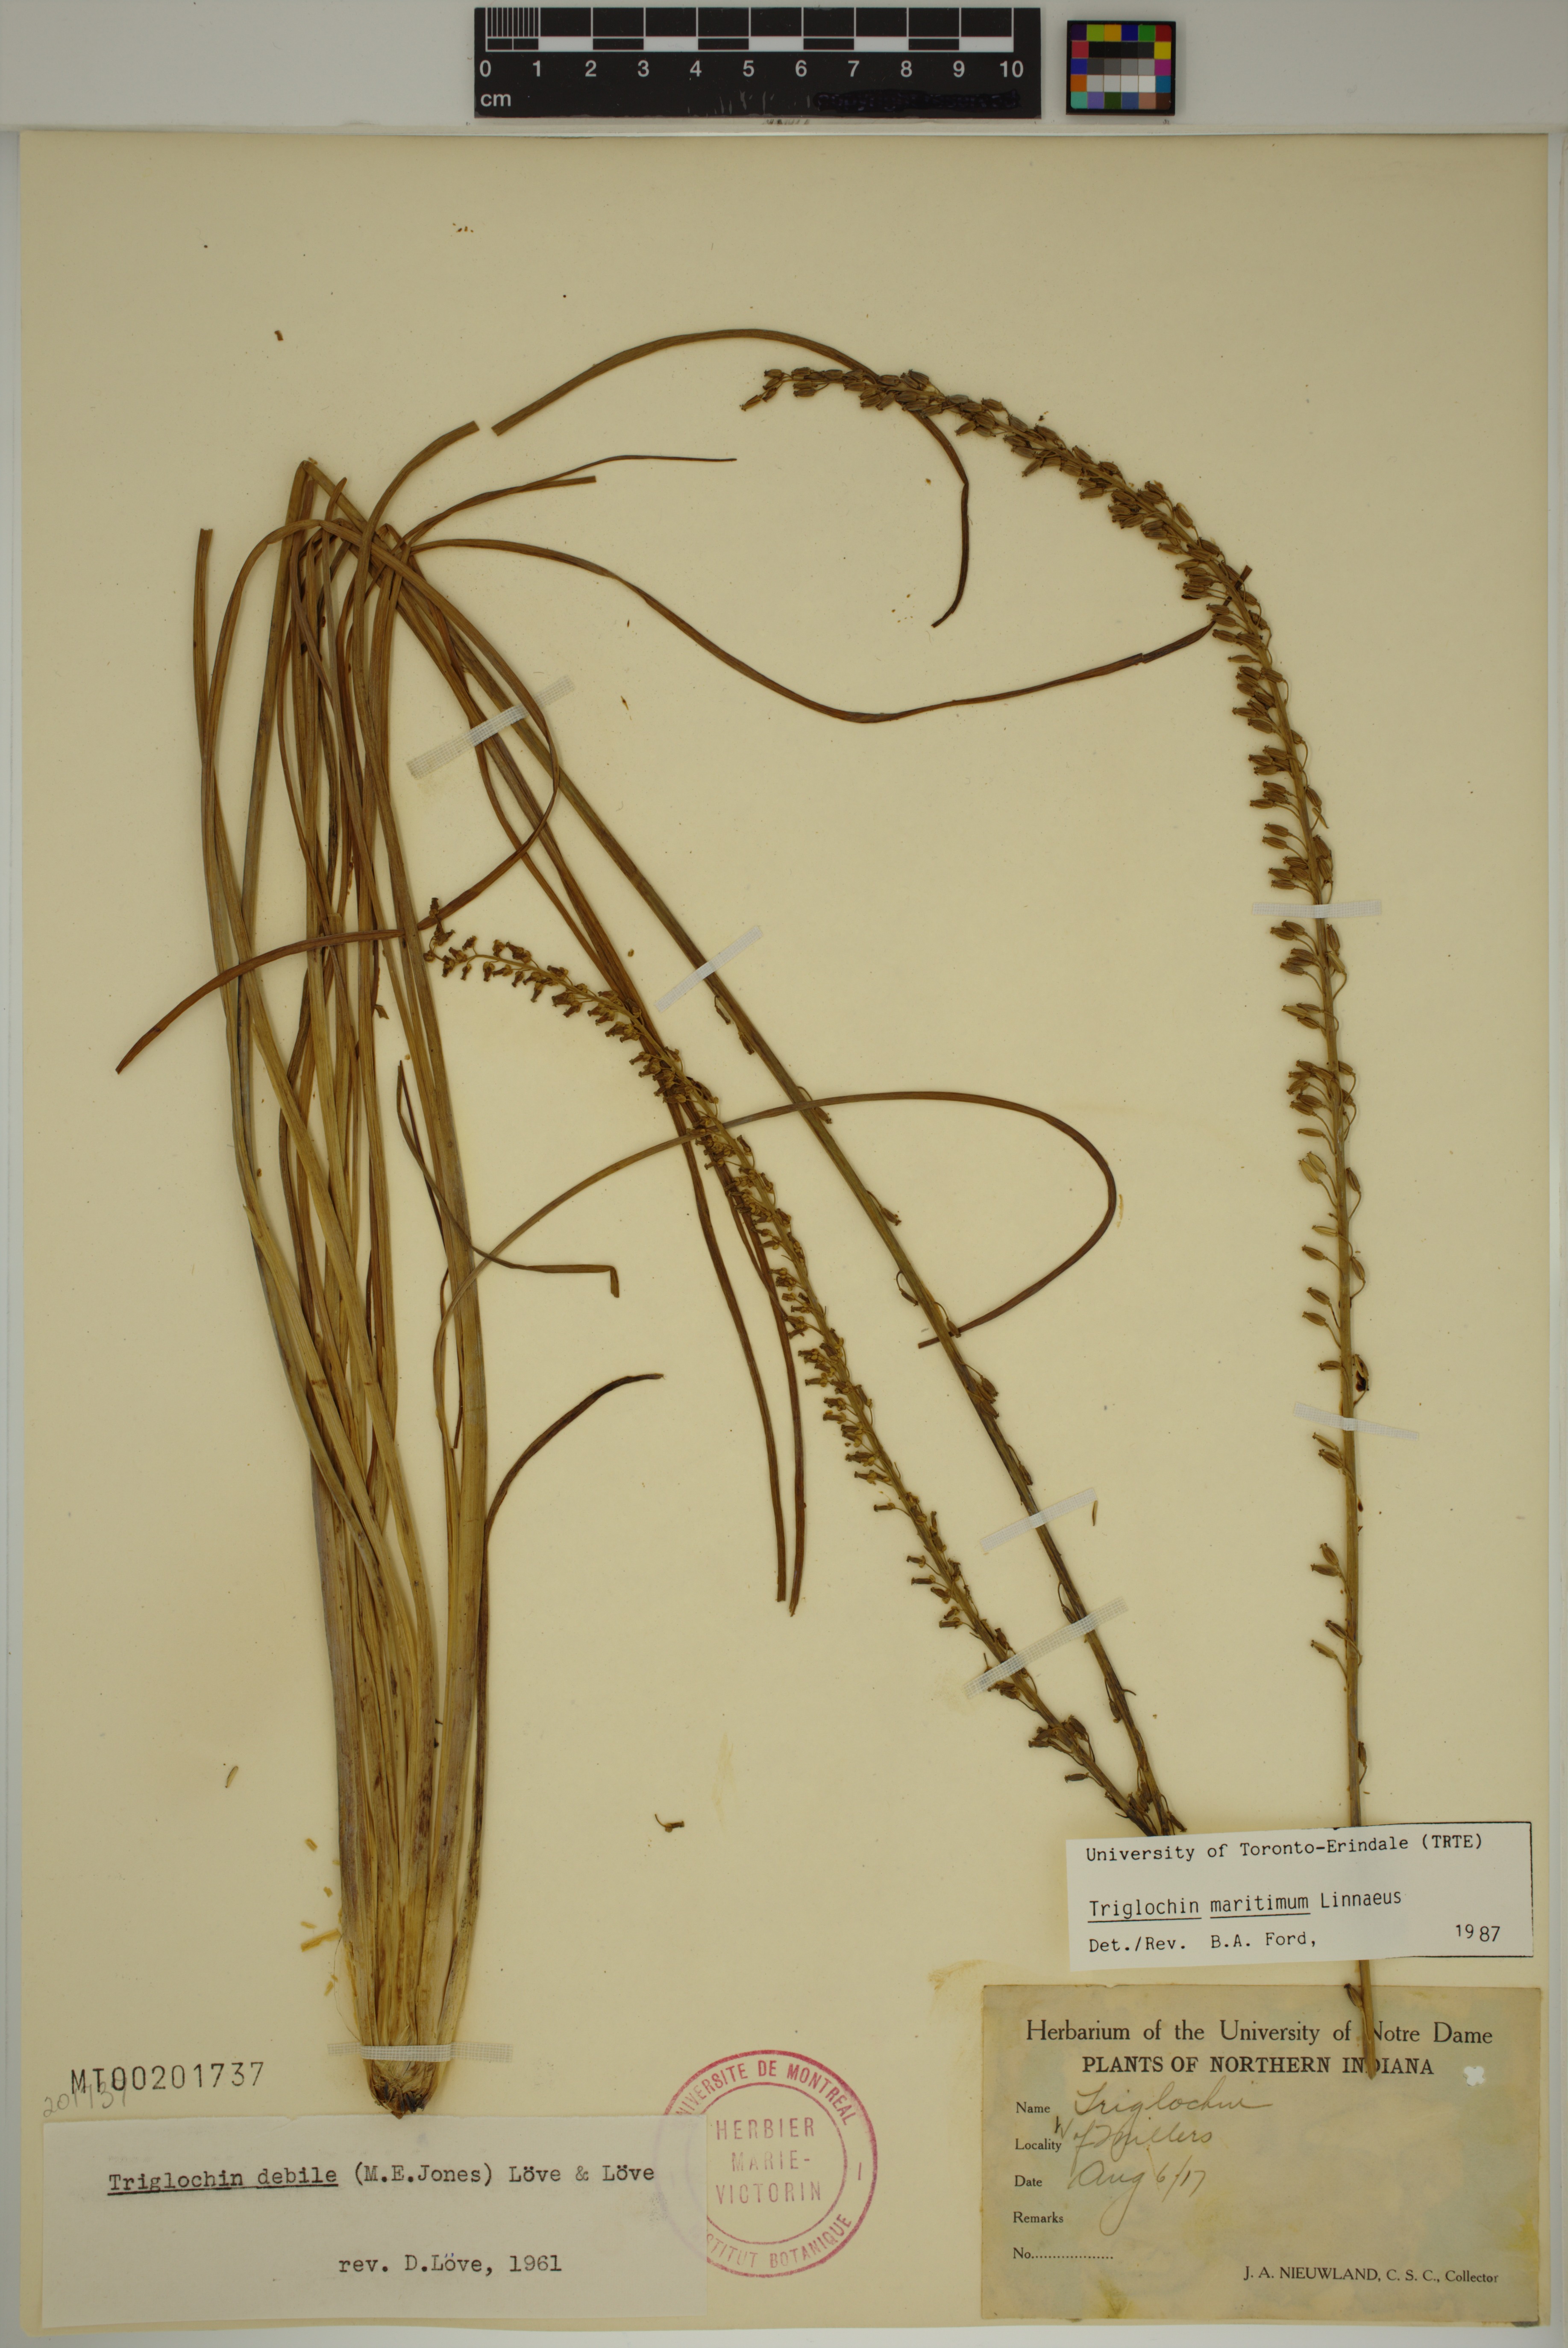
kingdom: Plantae
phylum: Tracheophyta
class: Liliopsida
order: Alismatales
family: Juncaginaceae
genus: Triglochin
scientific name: Triglochin maritima
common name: Sea arrowgrass
